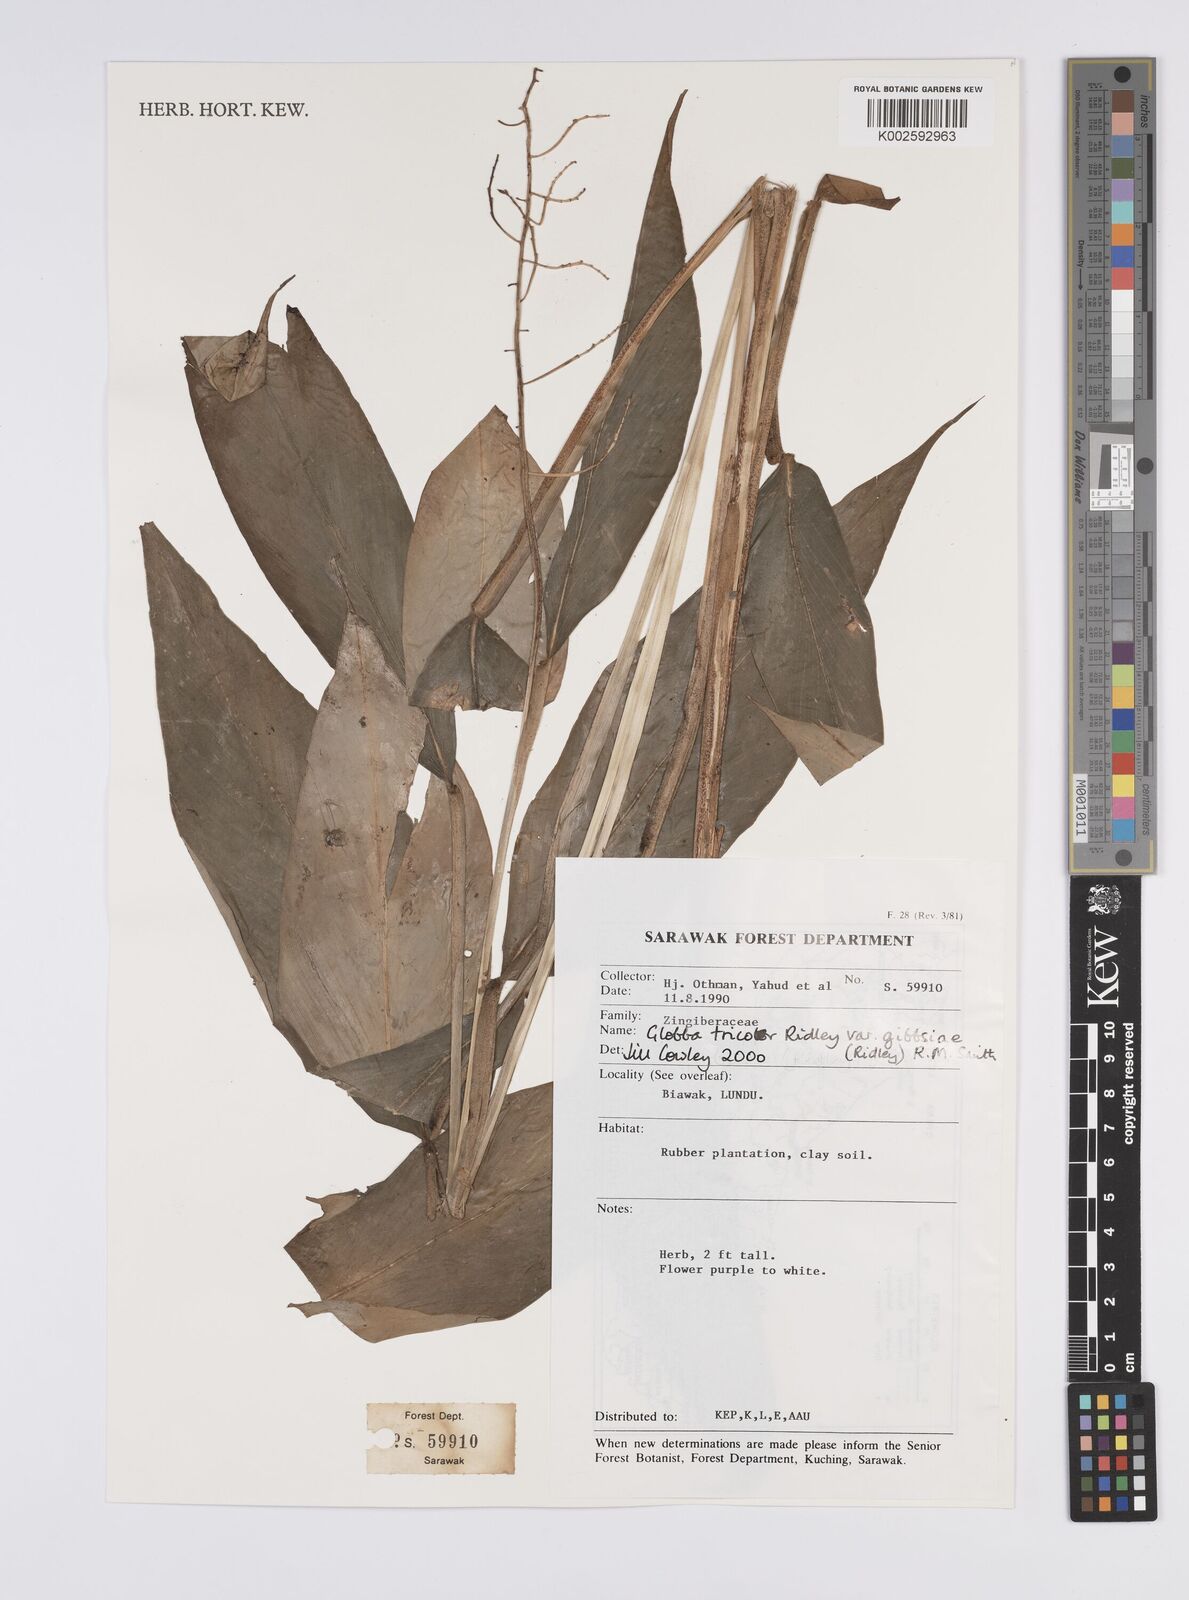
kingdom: Plantae
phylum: Tracheophyta
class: Liliopsida
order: Zingiberales
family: Zingiberaceae
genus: Globba
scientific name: Globba tricolor
